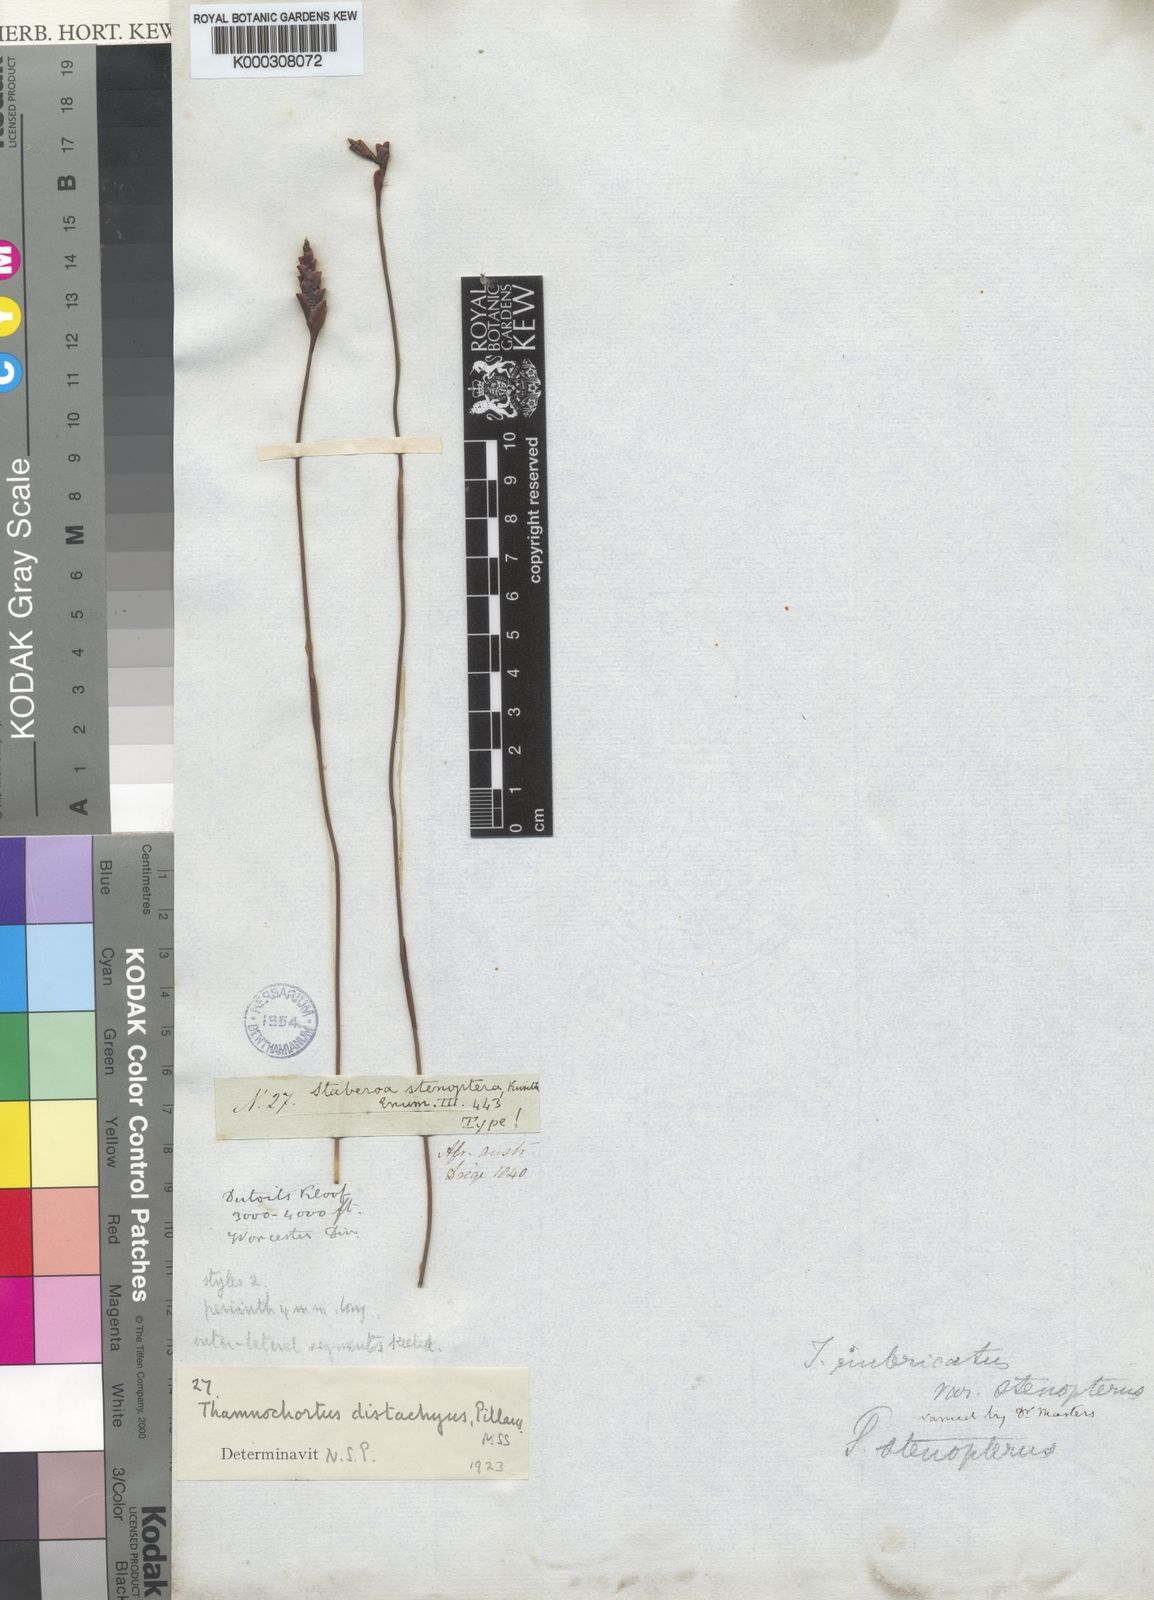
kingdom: Plantae
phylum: Tracheophyta
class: Liliopsida
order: Poales
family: Restionaceae
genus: Staberoha
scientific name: Staberoha aemula
